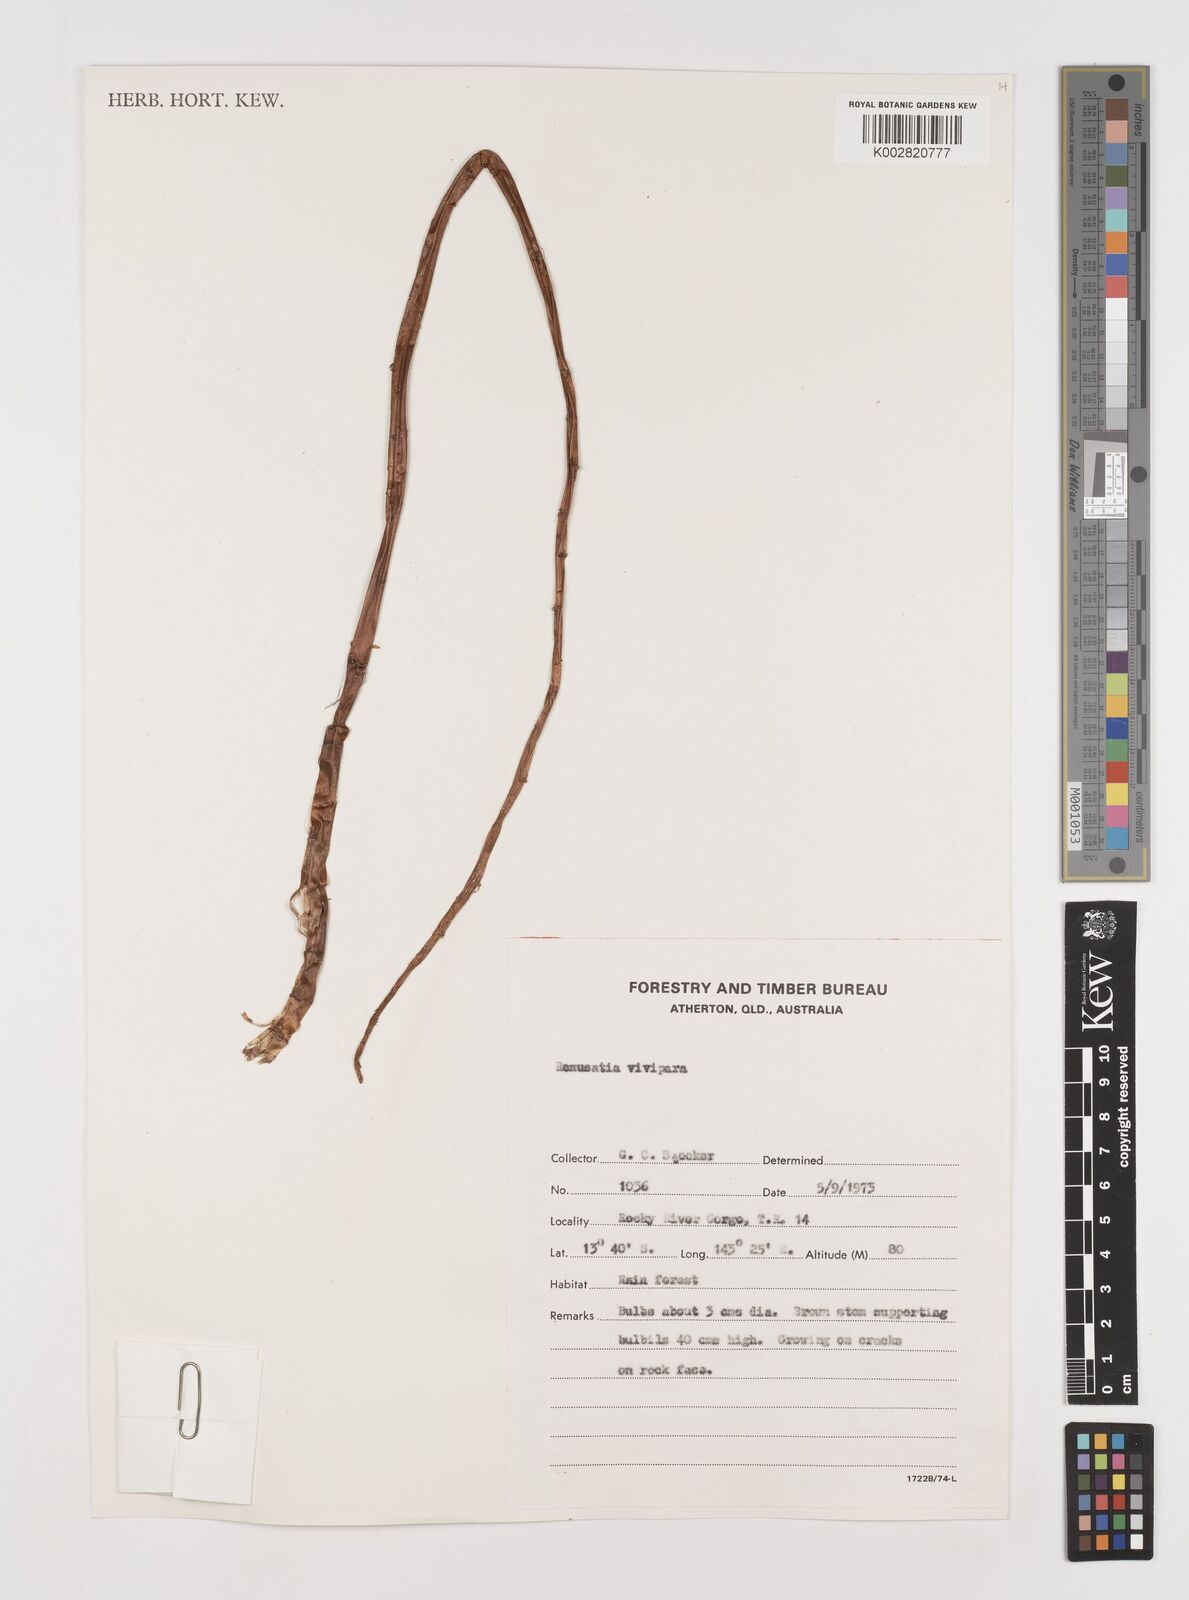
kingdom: Plantae
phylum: Tracheophyta
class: Liliopsida
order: Alismatales
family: Araceae
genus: Remusatia
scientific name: Remusatia vivipara
